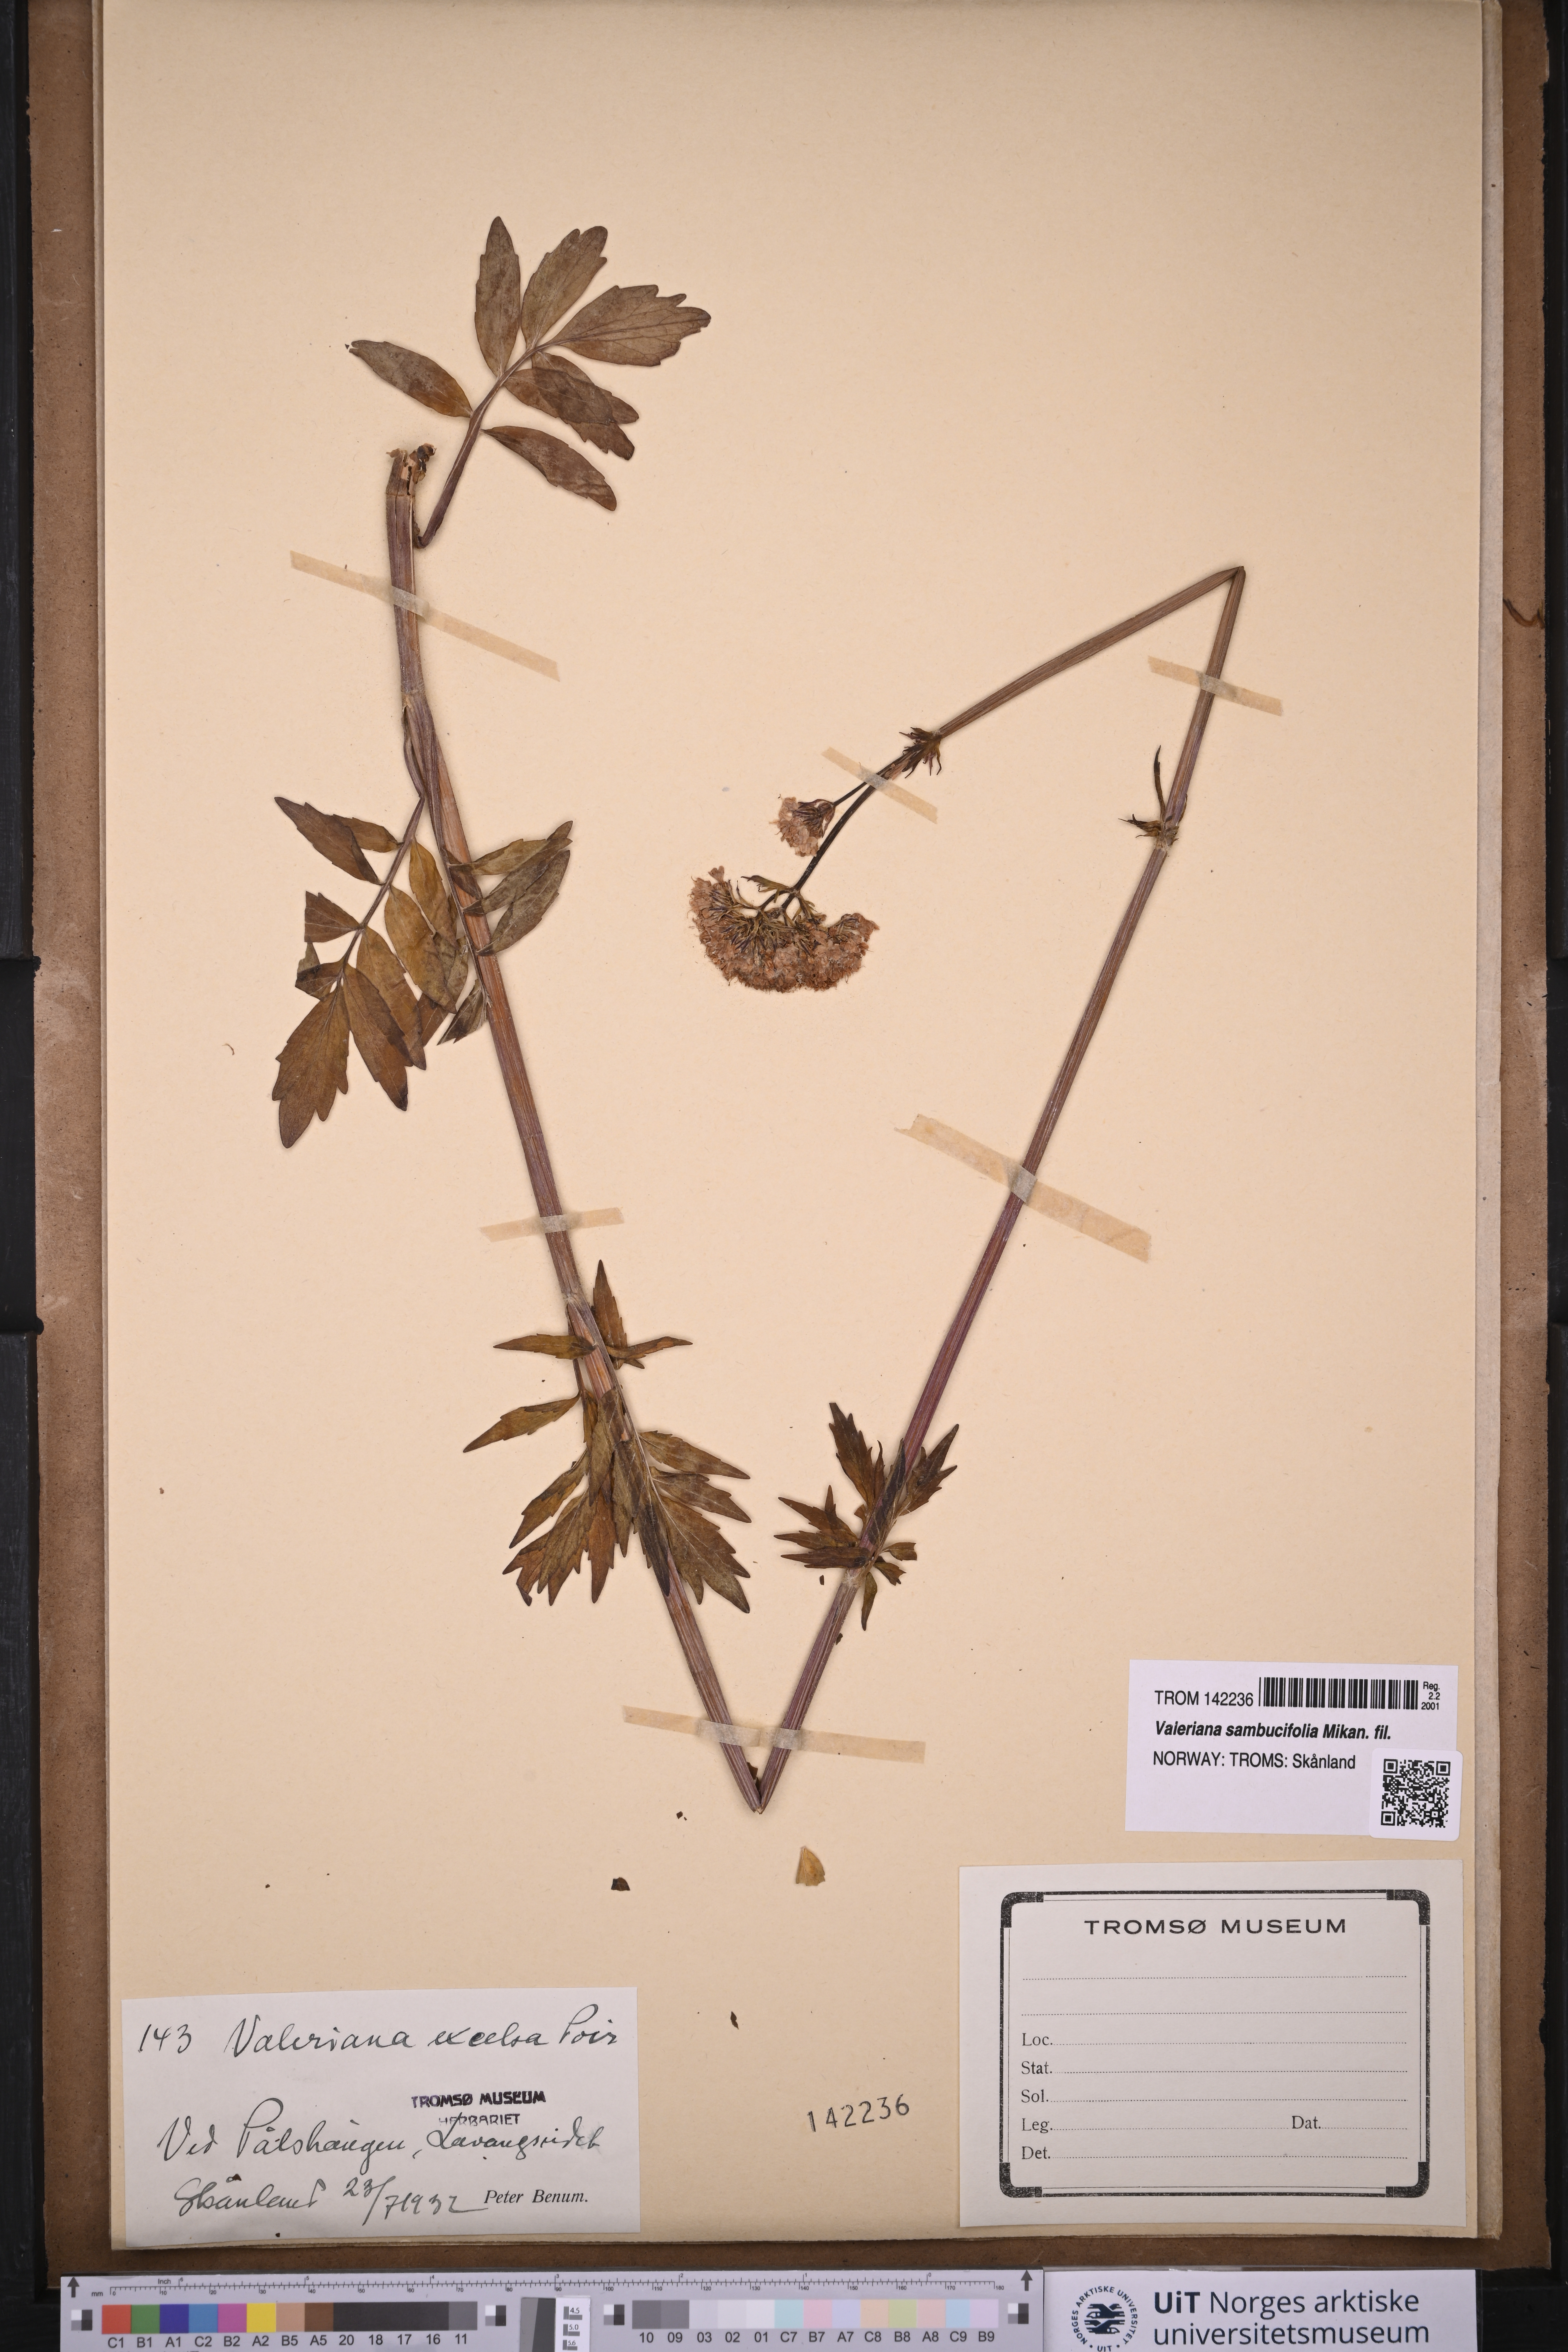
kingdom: Plantae
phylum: Tracheophyta
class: Magnoliopsida
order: Dipsacales
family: Caprifoliaceae
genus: Valeriana
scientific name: Valeriana sambucifolia
